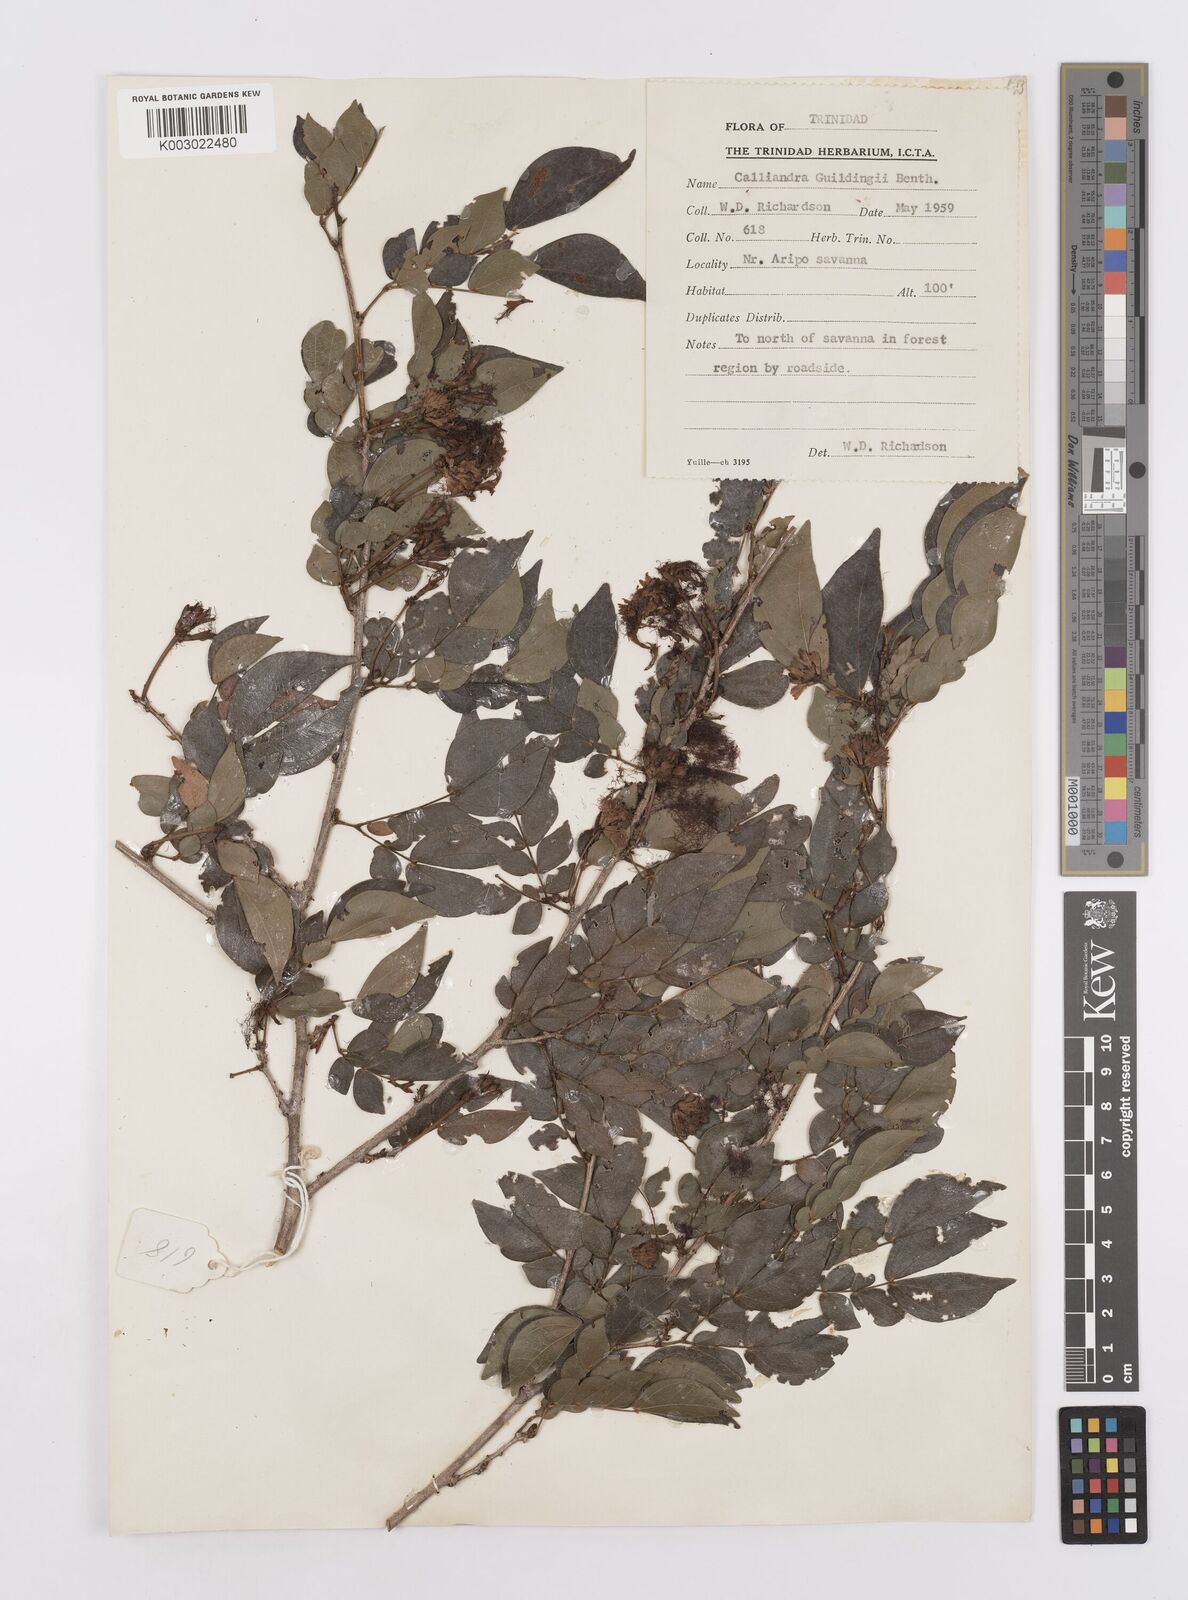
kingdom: Plantae
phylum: Tracheophyta
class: Magnoliopsida
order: Fabales
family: Fabaceae
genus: Calliandra
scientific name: Calliandra guildingii
